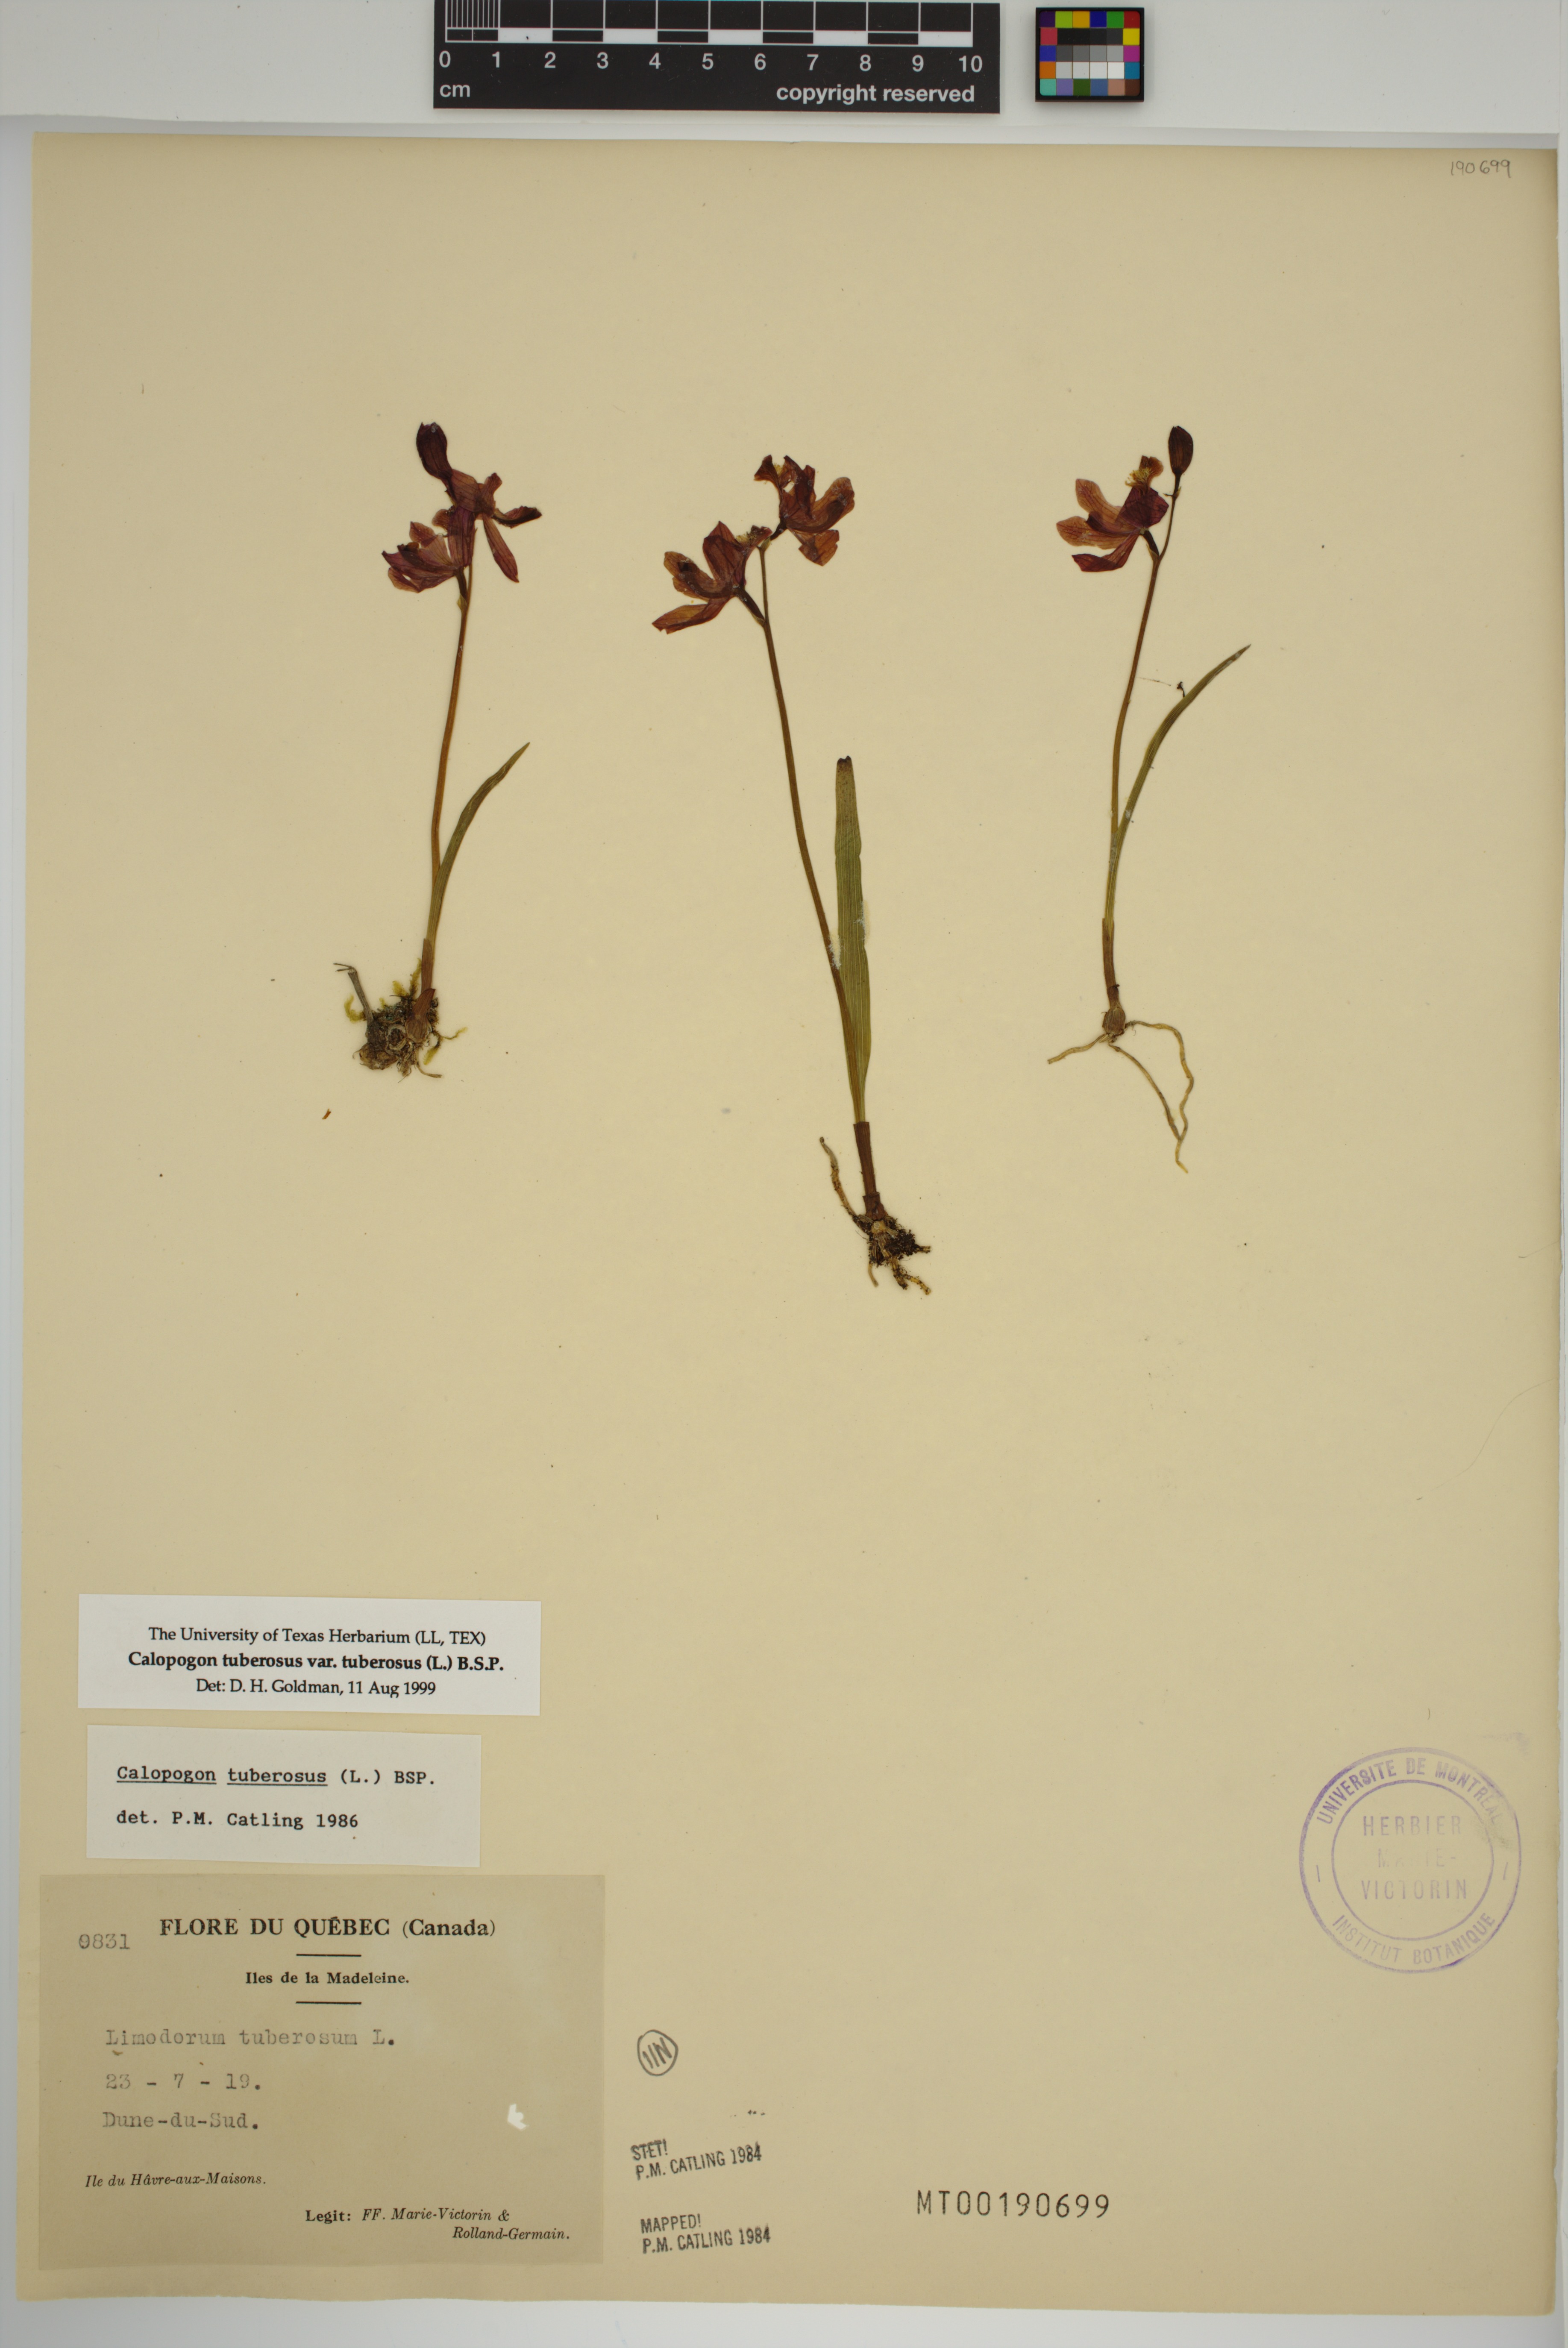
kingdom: Plantae
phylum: Tracheophyta
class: Liliopsida
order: Asparagales
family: Orchidaceae
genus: Calopogon
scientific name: Calopogon tuberosus
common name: Grass-pink
